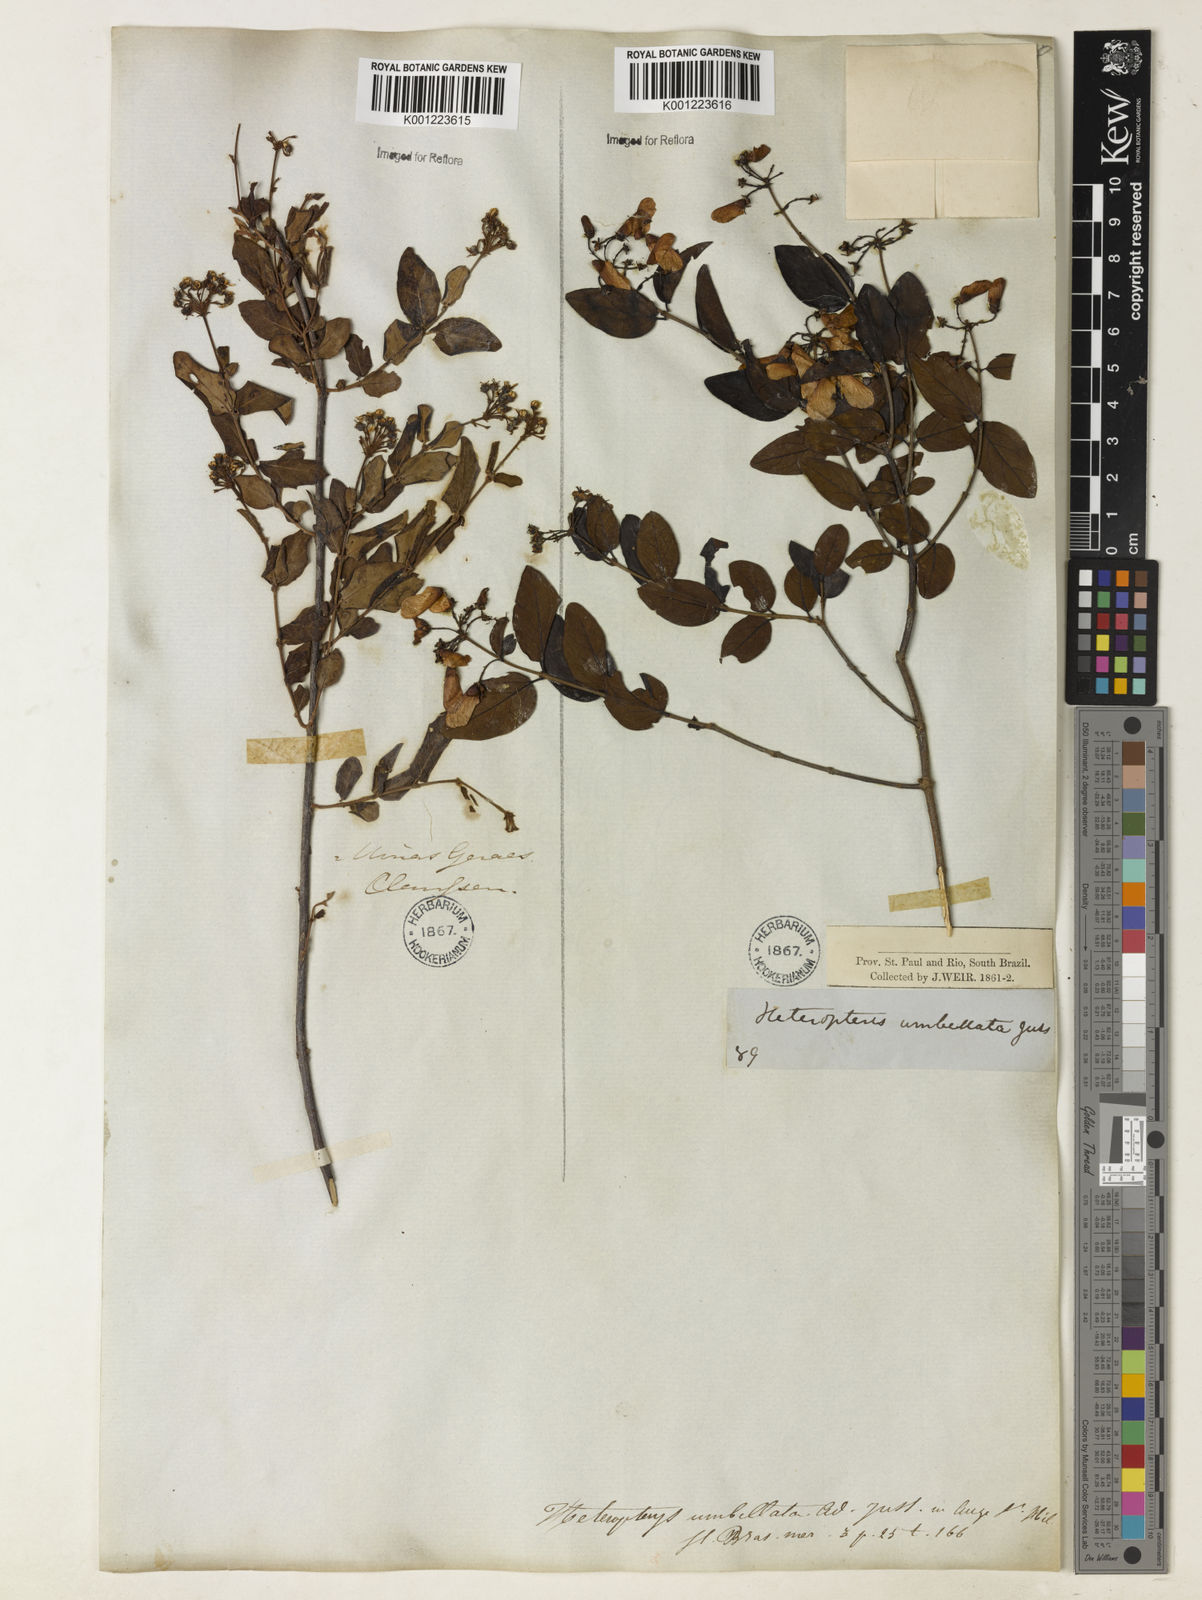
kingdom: Plantae
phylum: Tracheophyta
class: Magnoliopsida
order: Malpighiales
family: Malpighiaceae
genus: Heteropterys
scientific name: Heteropterys umbellata
